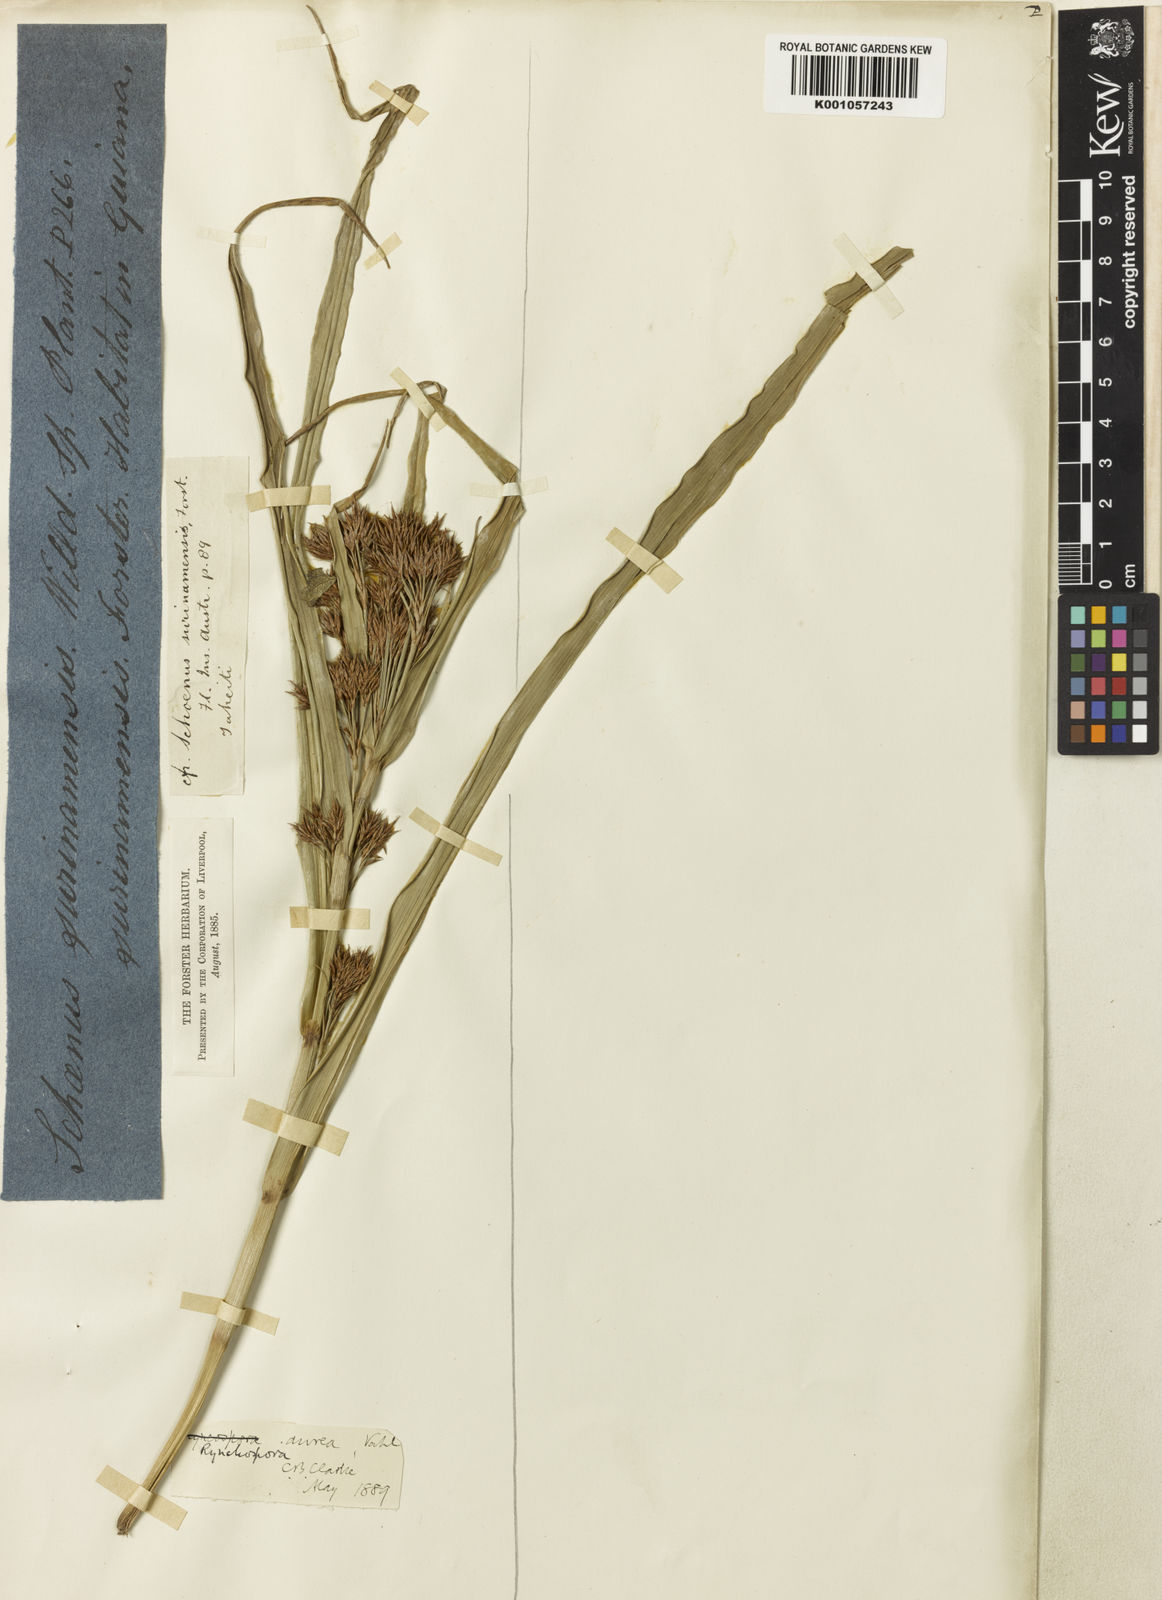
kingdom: Plantae
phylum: Tracheophyta
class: Liliopsida
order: Poales
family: Cyperaceae
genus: Rhynchospora
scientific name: Rhynchospora corymbosa
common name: Golden beak sedge
